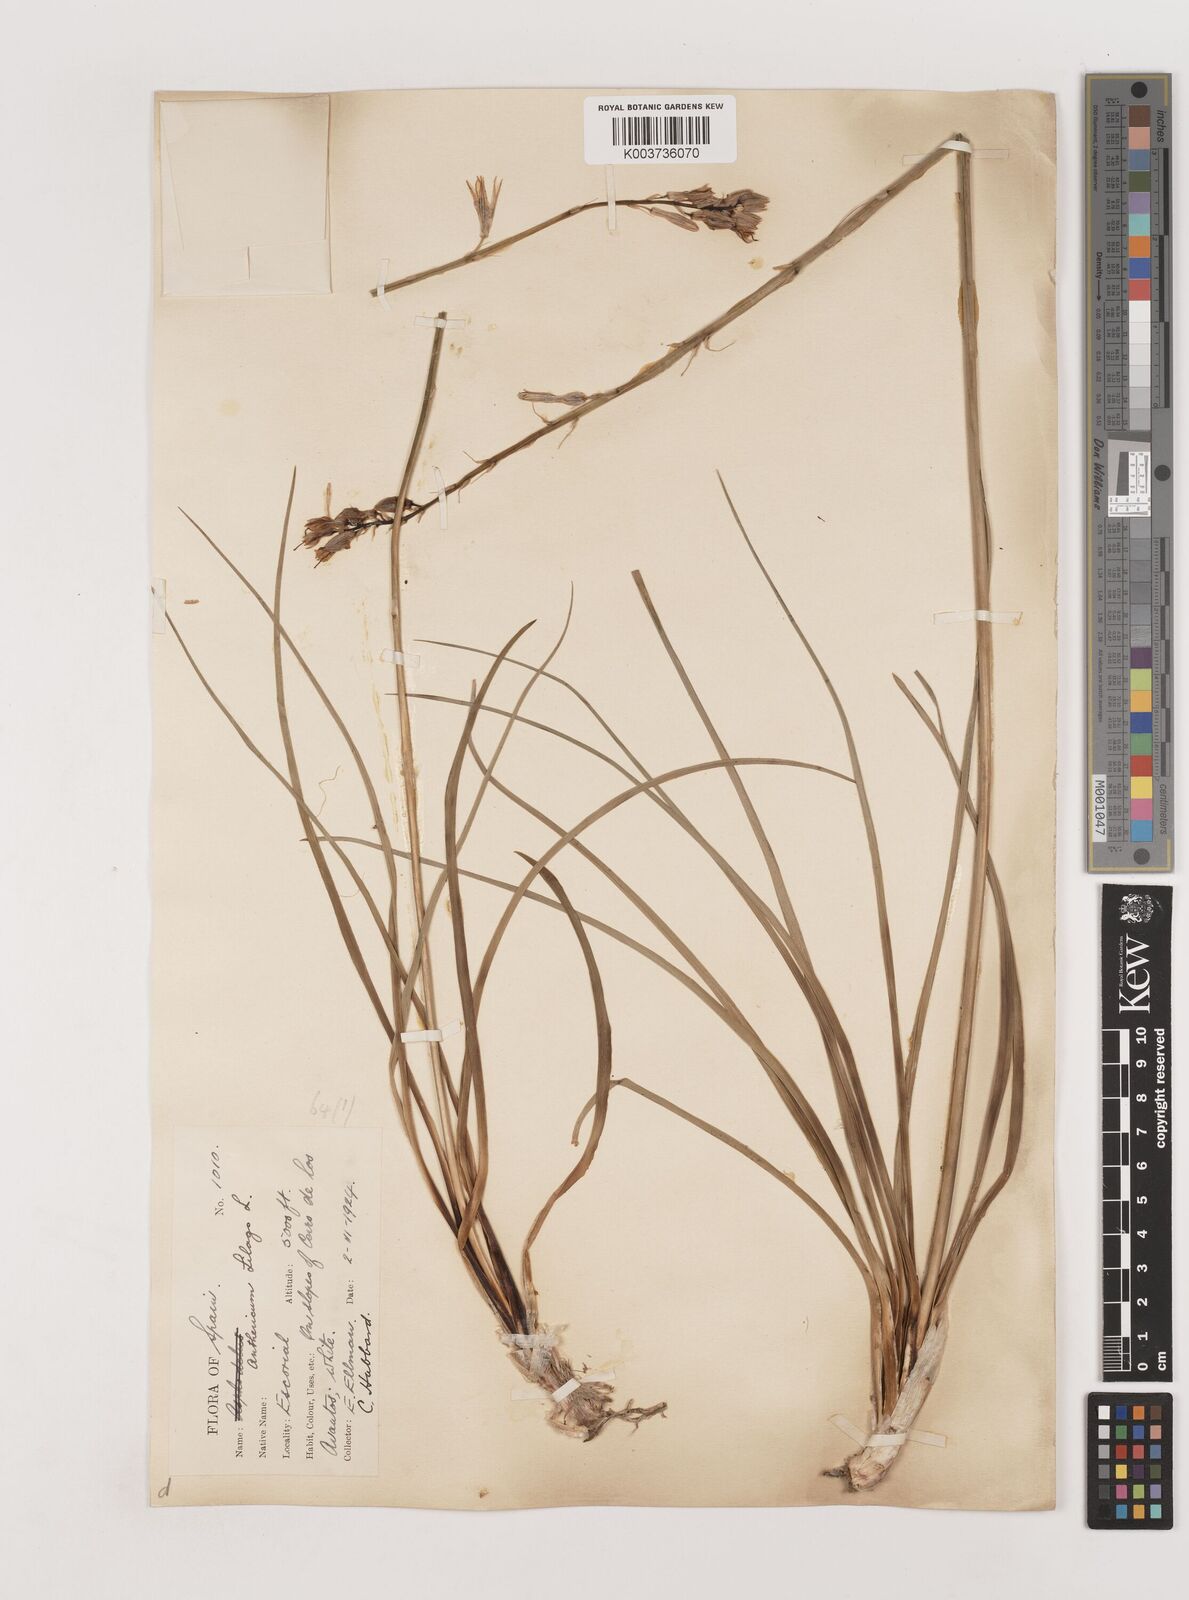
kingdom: Plantae
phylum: Tracheophyta
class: Liliopsida
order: Asparagales
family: Asparagaceae
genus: Anthericum
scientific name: Anthericum liliago
